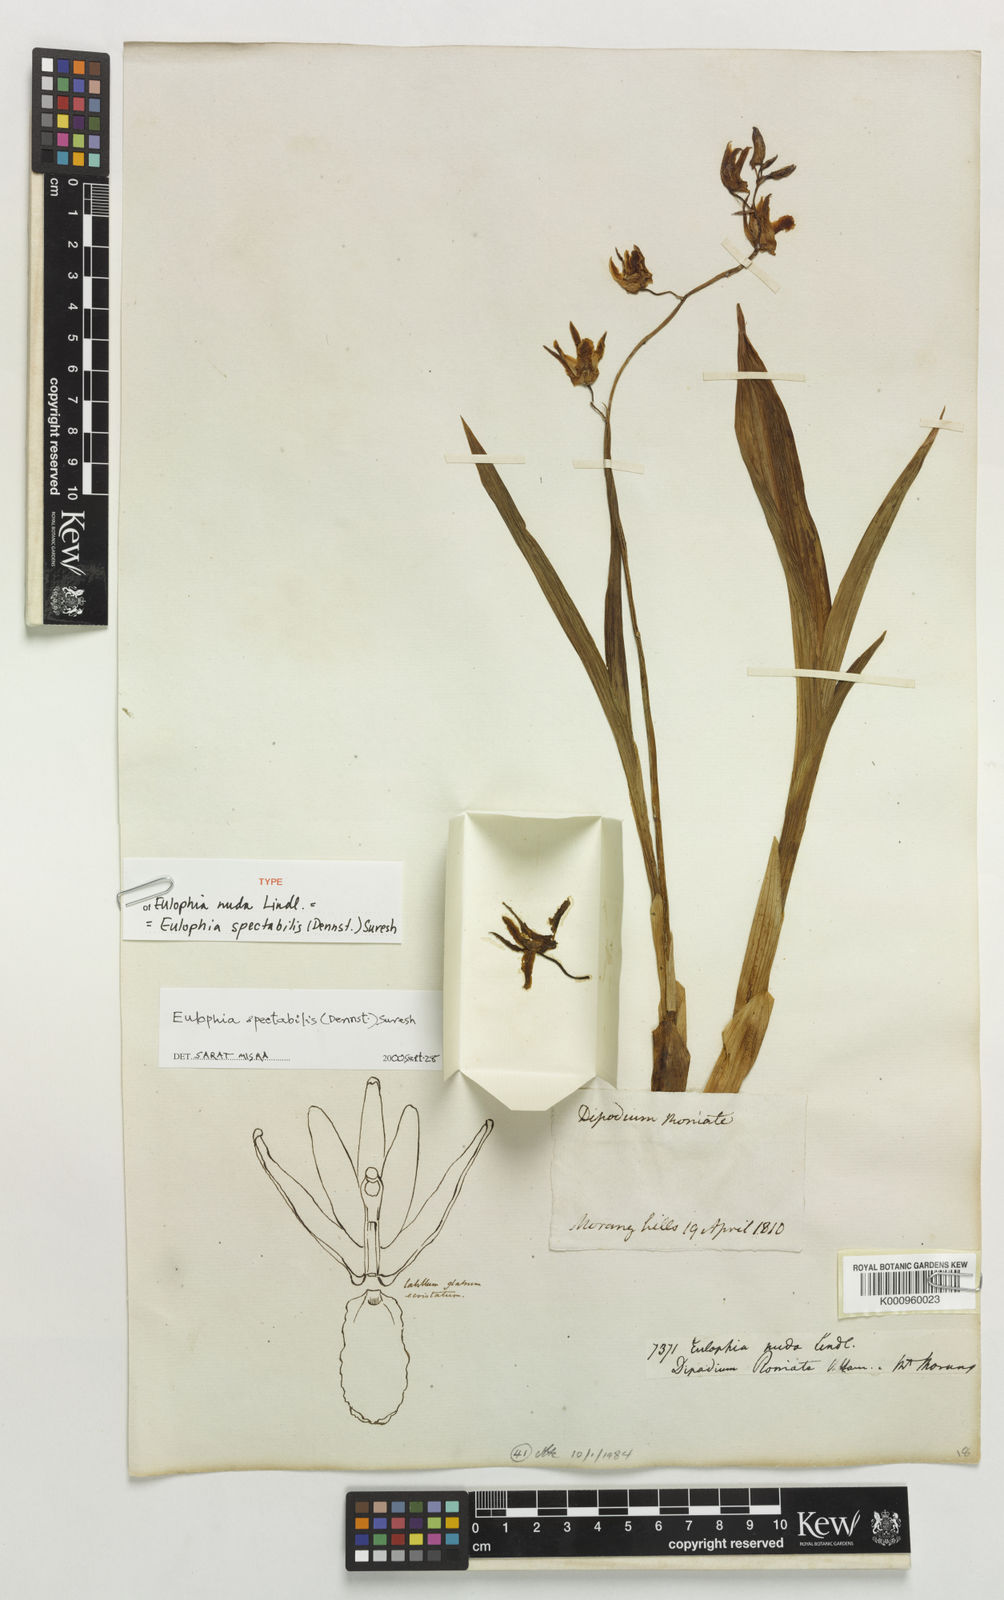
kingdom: Plantae
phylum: Tracheophyta
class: Liliopsida
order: Asparagales
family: Orchidaceae
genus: Eulophia
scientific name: Eulophia nuda
